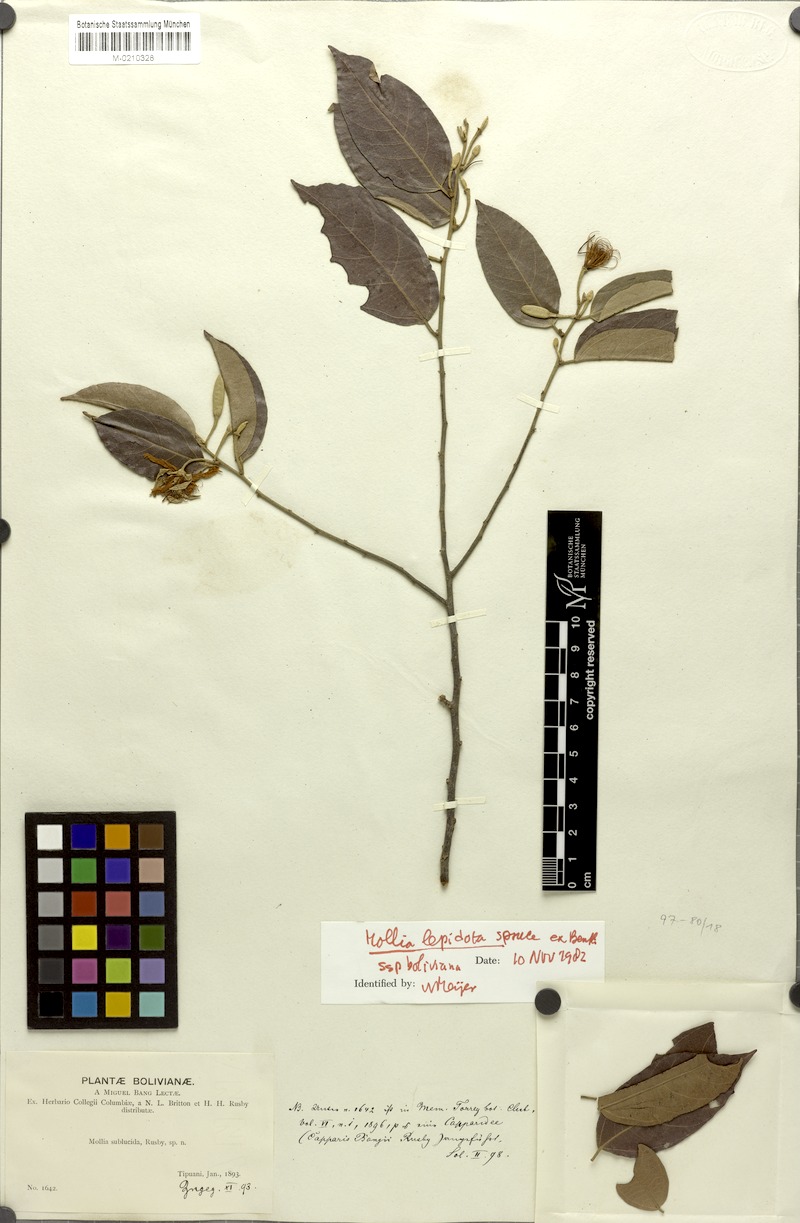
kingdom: Plantae
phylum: Tracheophyta
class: Magnoliopsida
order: Malvales
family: Malvaceae
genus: Mollia
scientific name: Mollia lepidota
